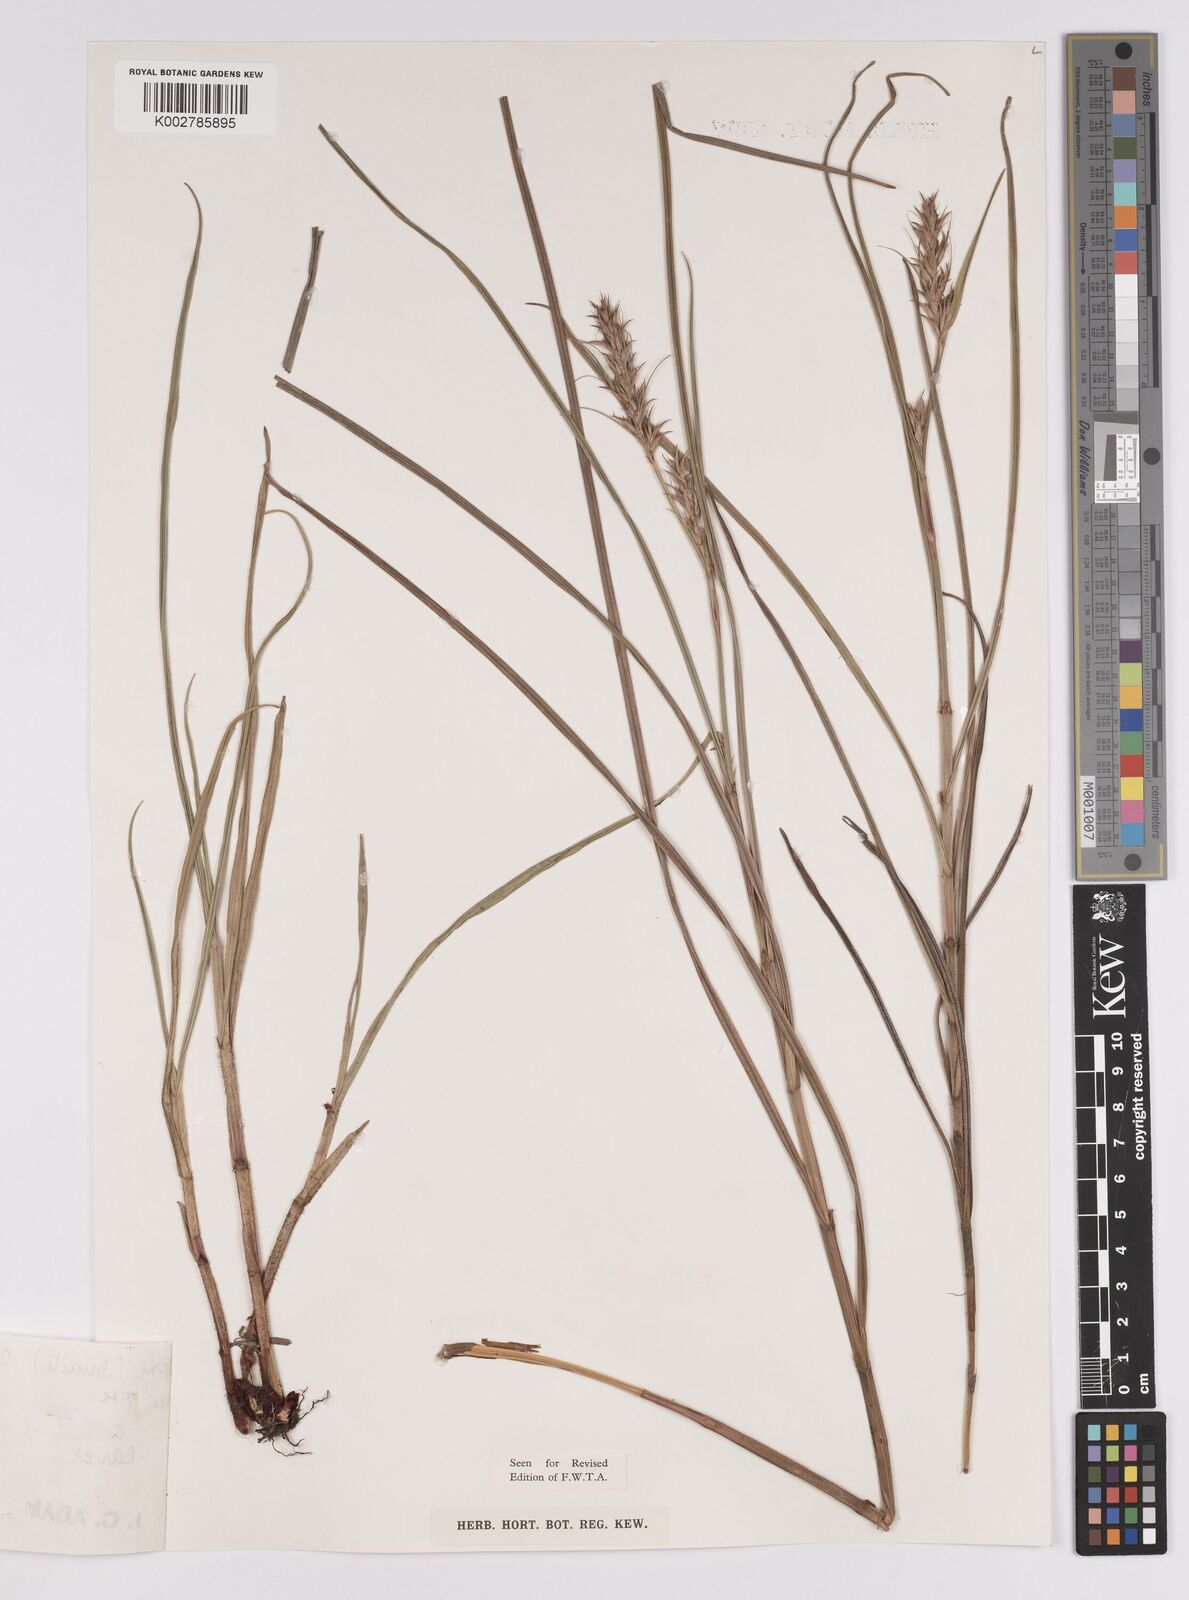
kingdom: Plantae
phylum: Tracheophyta
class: Liliopsida
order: Poales
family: Cyperaceae
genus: Scleria
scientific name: Scleria spiciformis
